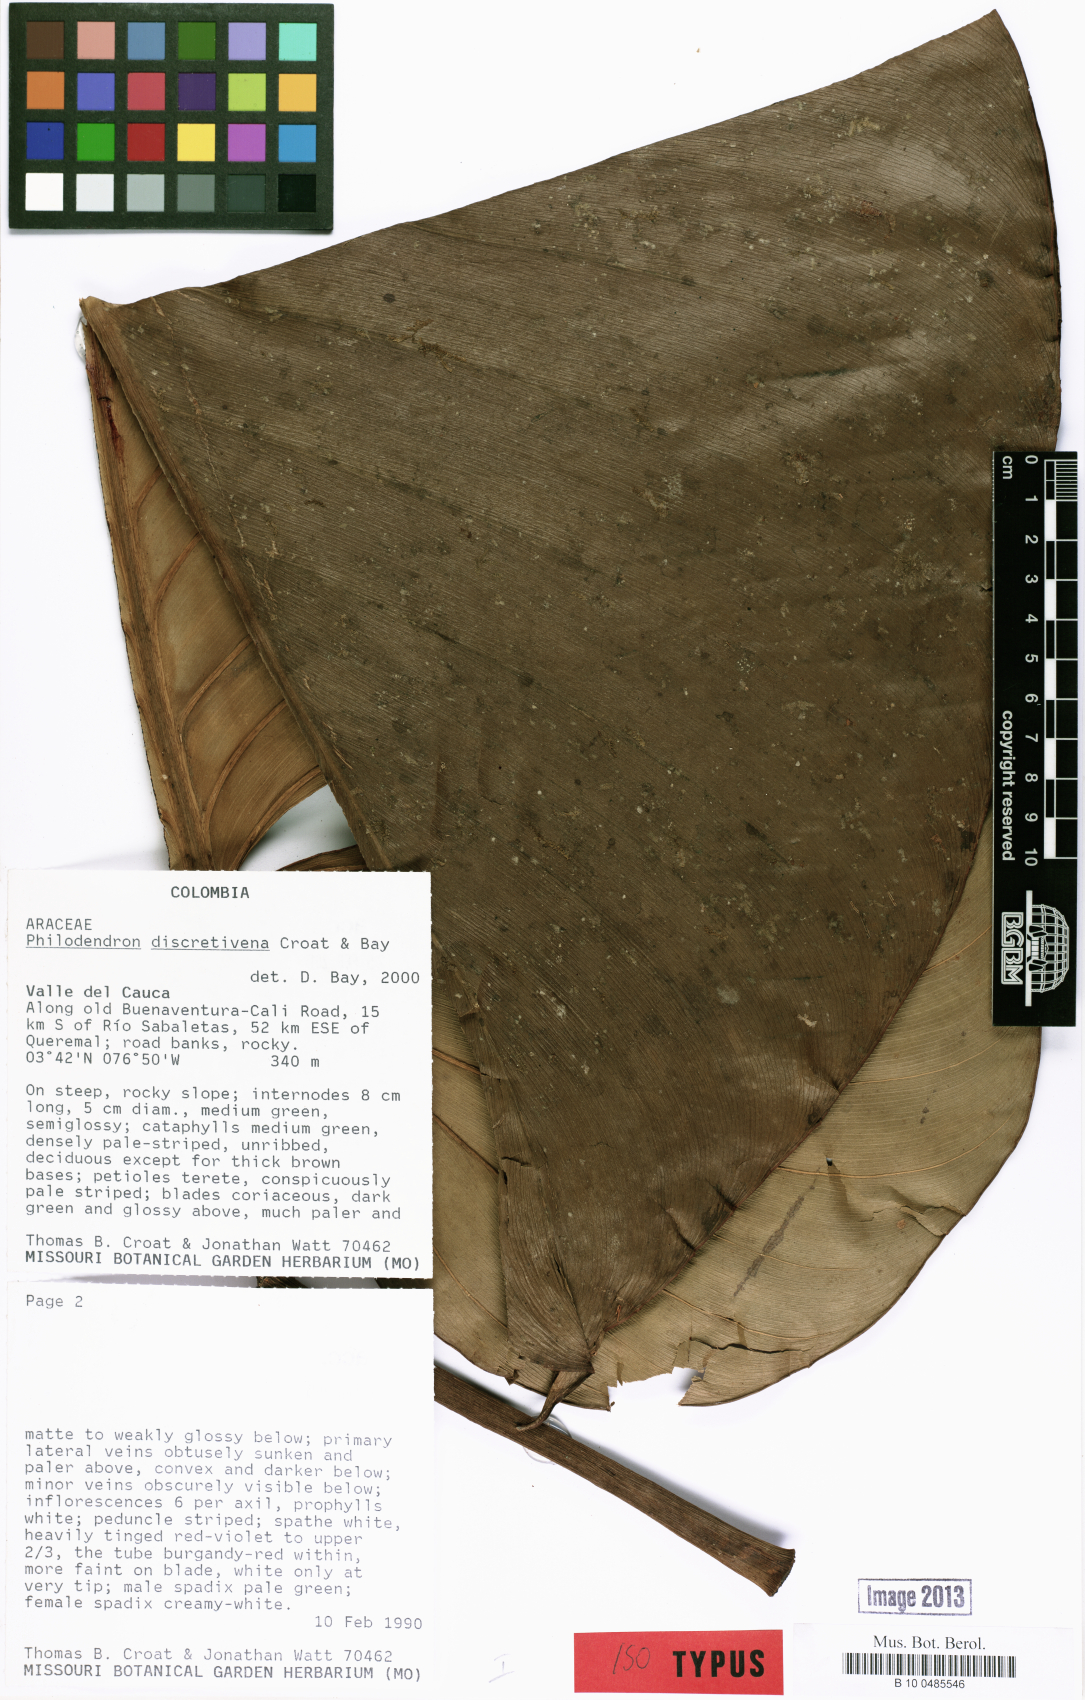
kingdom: Plantae
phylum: Tracheophyta
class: Liliopsida
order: Alismatales
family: Araceae
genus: Philodendron
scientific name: Philodendron discretivenium
